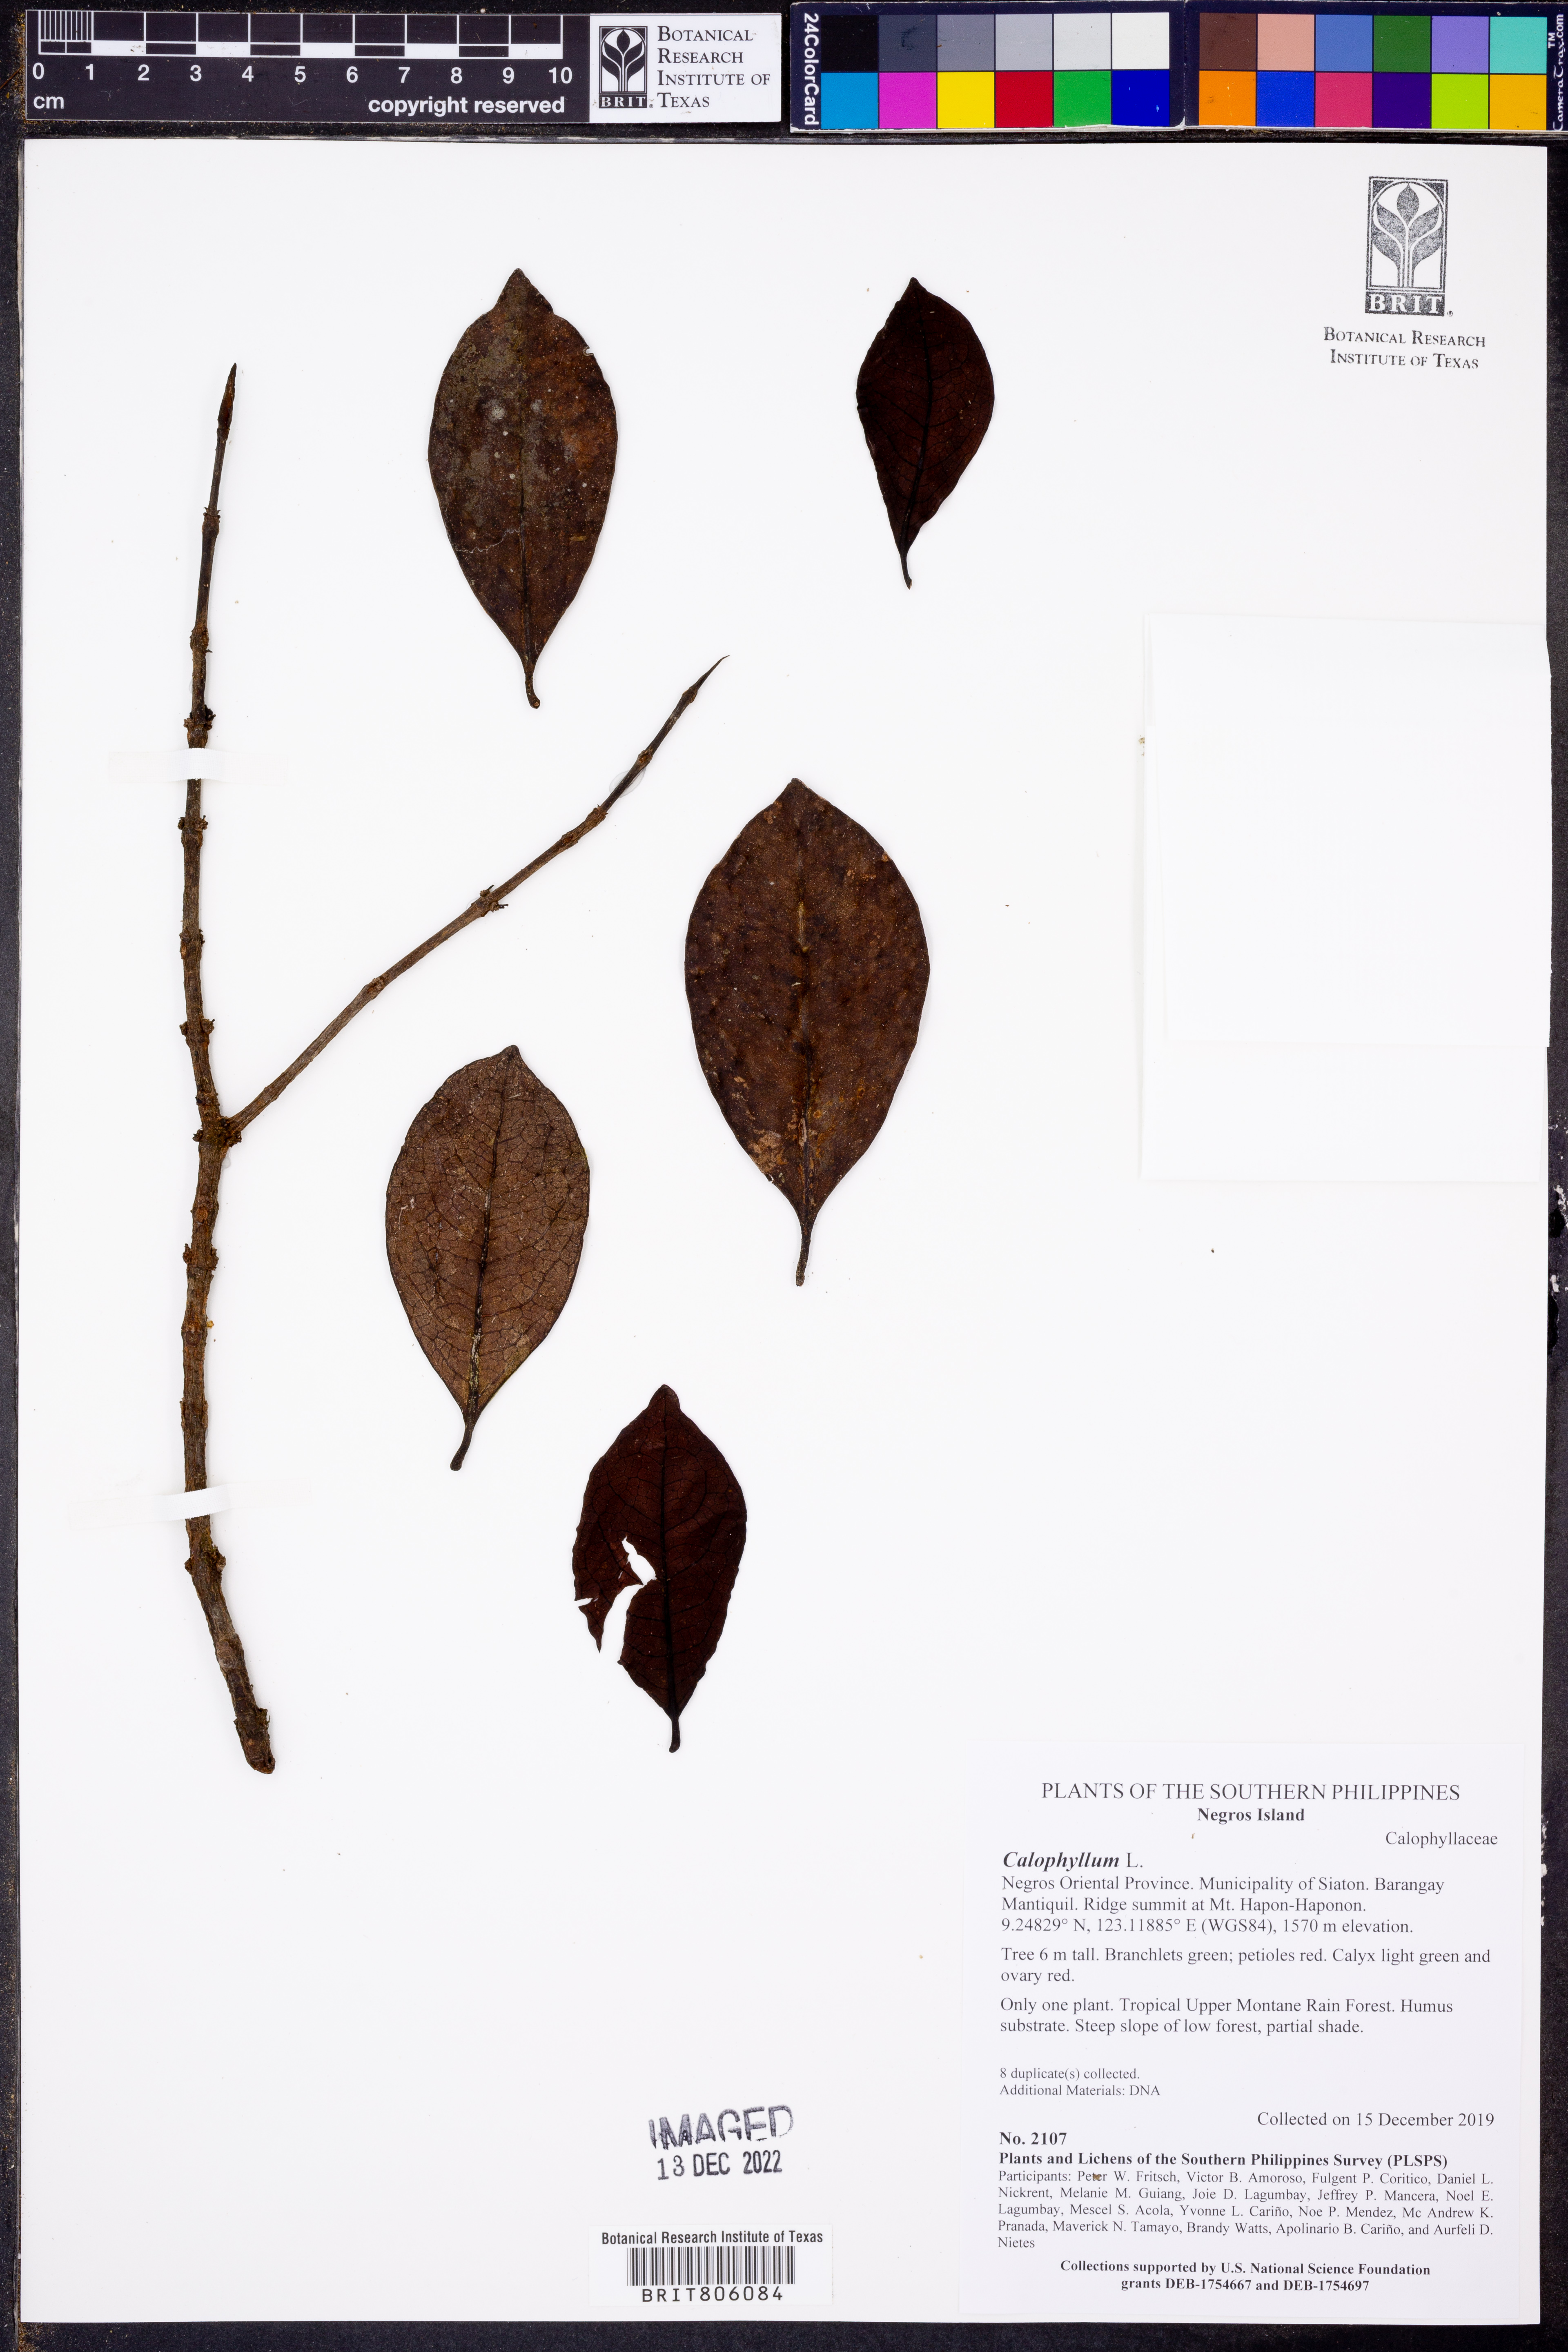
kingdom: Plantae
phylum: Tracheophyta
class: Magnoliopsida
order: Malpighiales
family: Calophyllaceae
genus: Calophyllum
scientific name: Calophyllum
